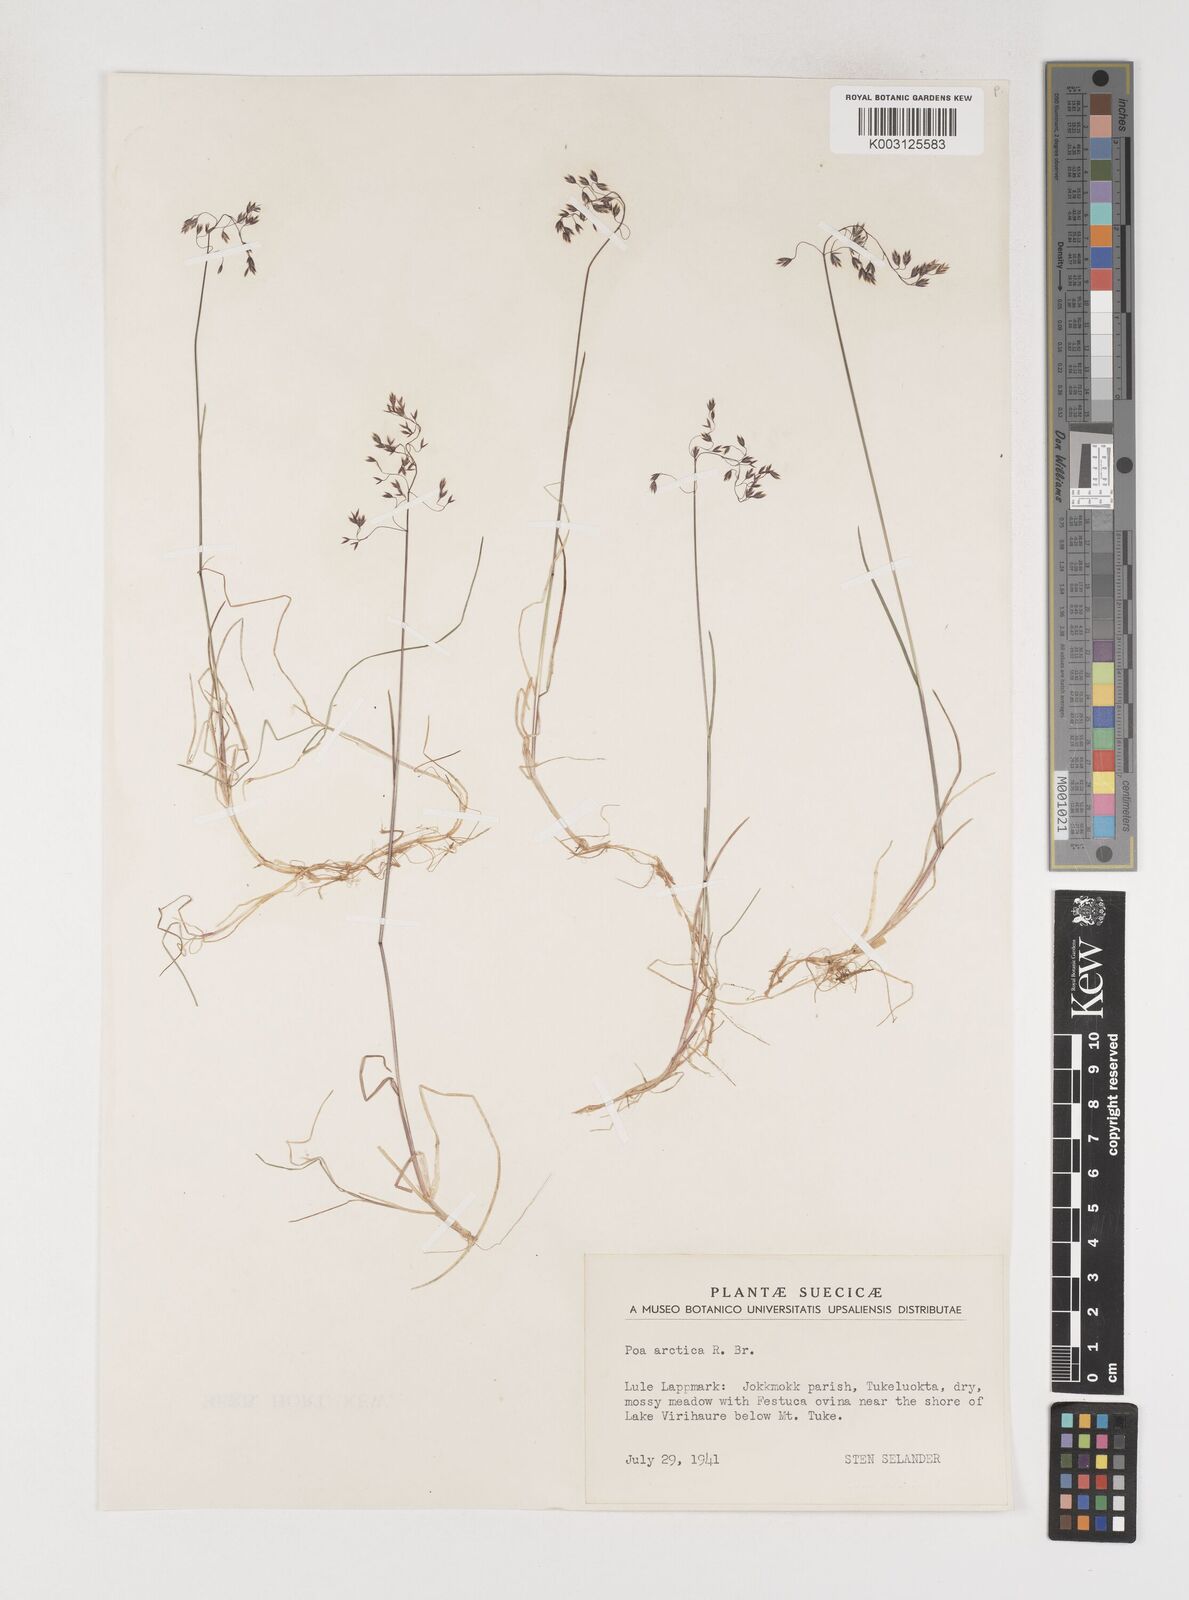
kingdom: Plantae
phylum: Tracheophyta
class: Liliopsida
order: Poales
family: Poaceae
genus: Poa
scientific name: Poa arctica
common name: Arctic bluegrass
